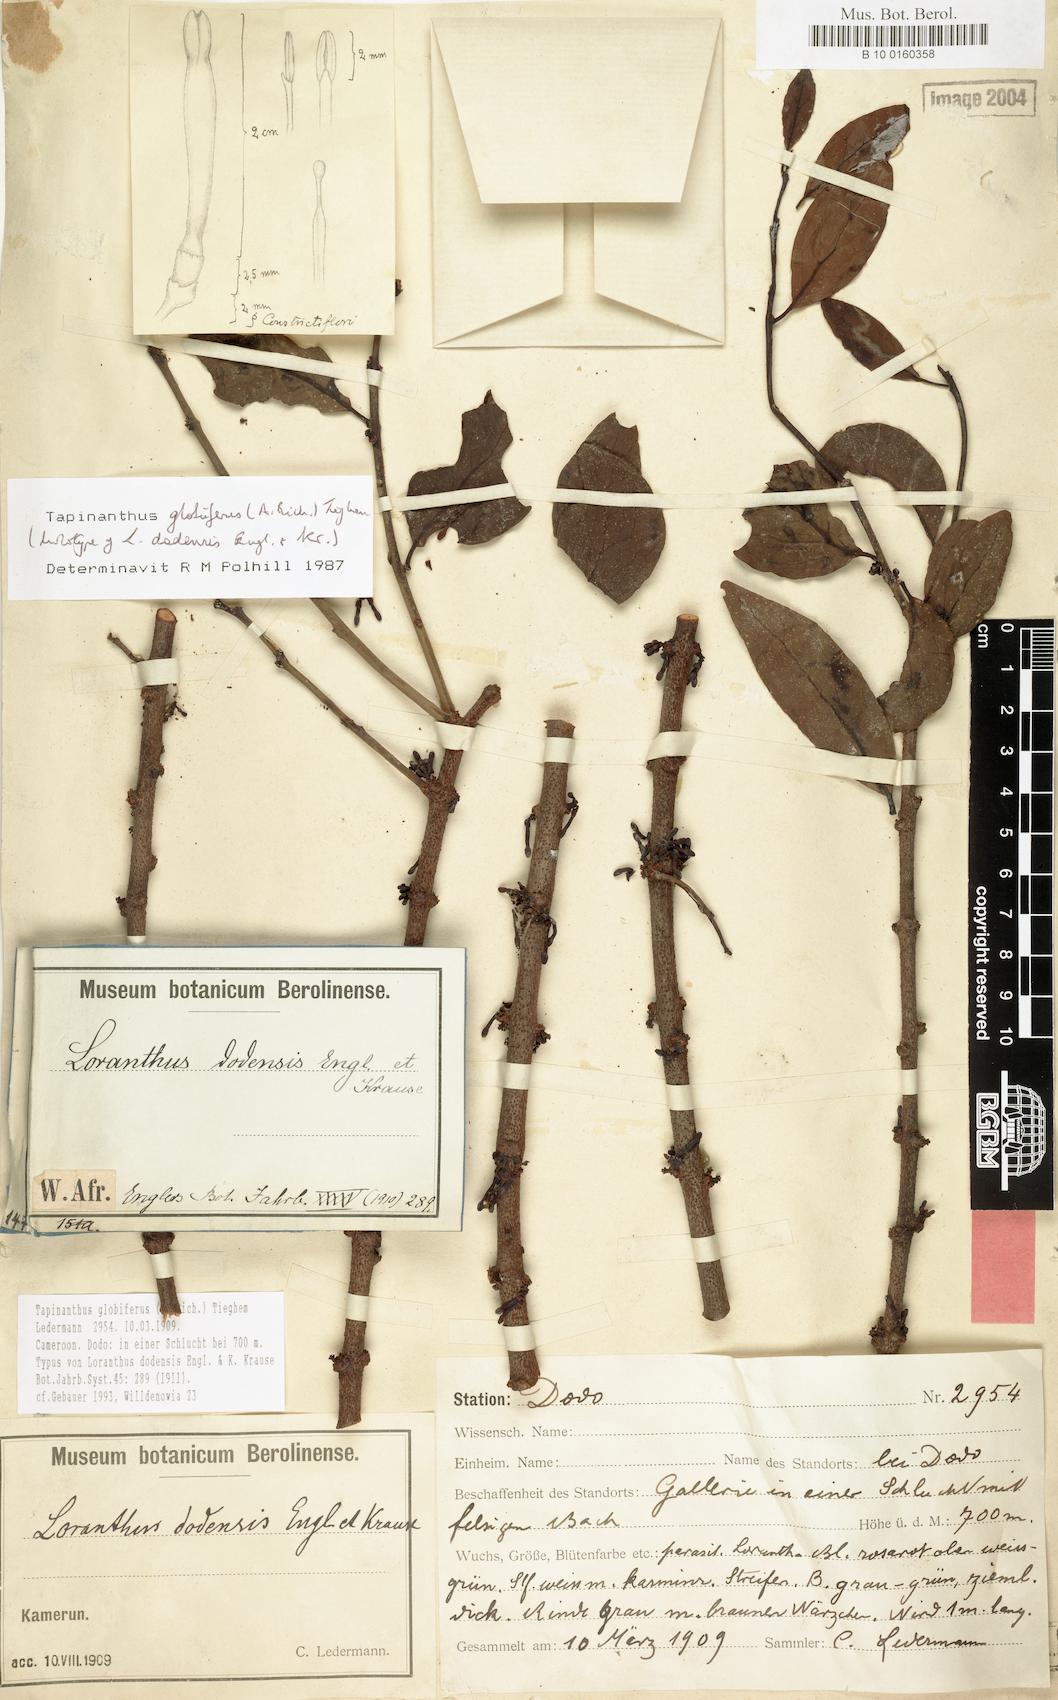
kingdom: Plantae
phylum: Tracheophyta
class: Magnoliopsida
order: Santalales
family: Loranthaceae
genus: Tapinanthus
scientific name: Tapinanthus globiferus
